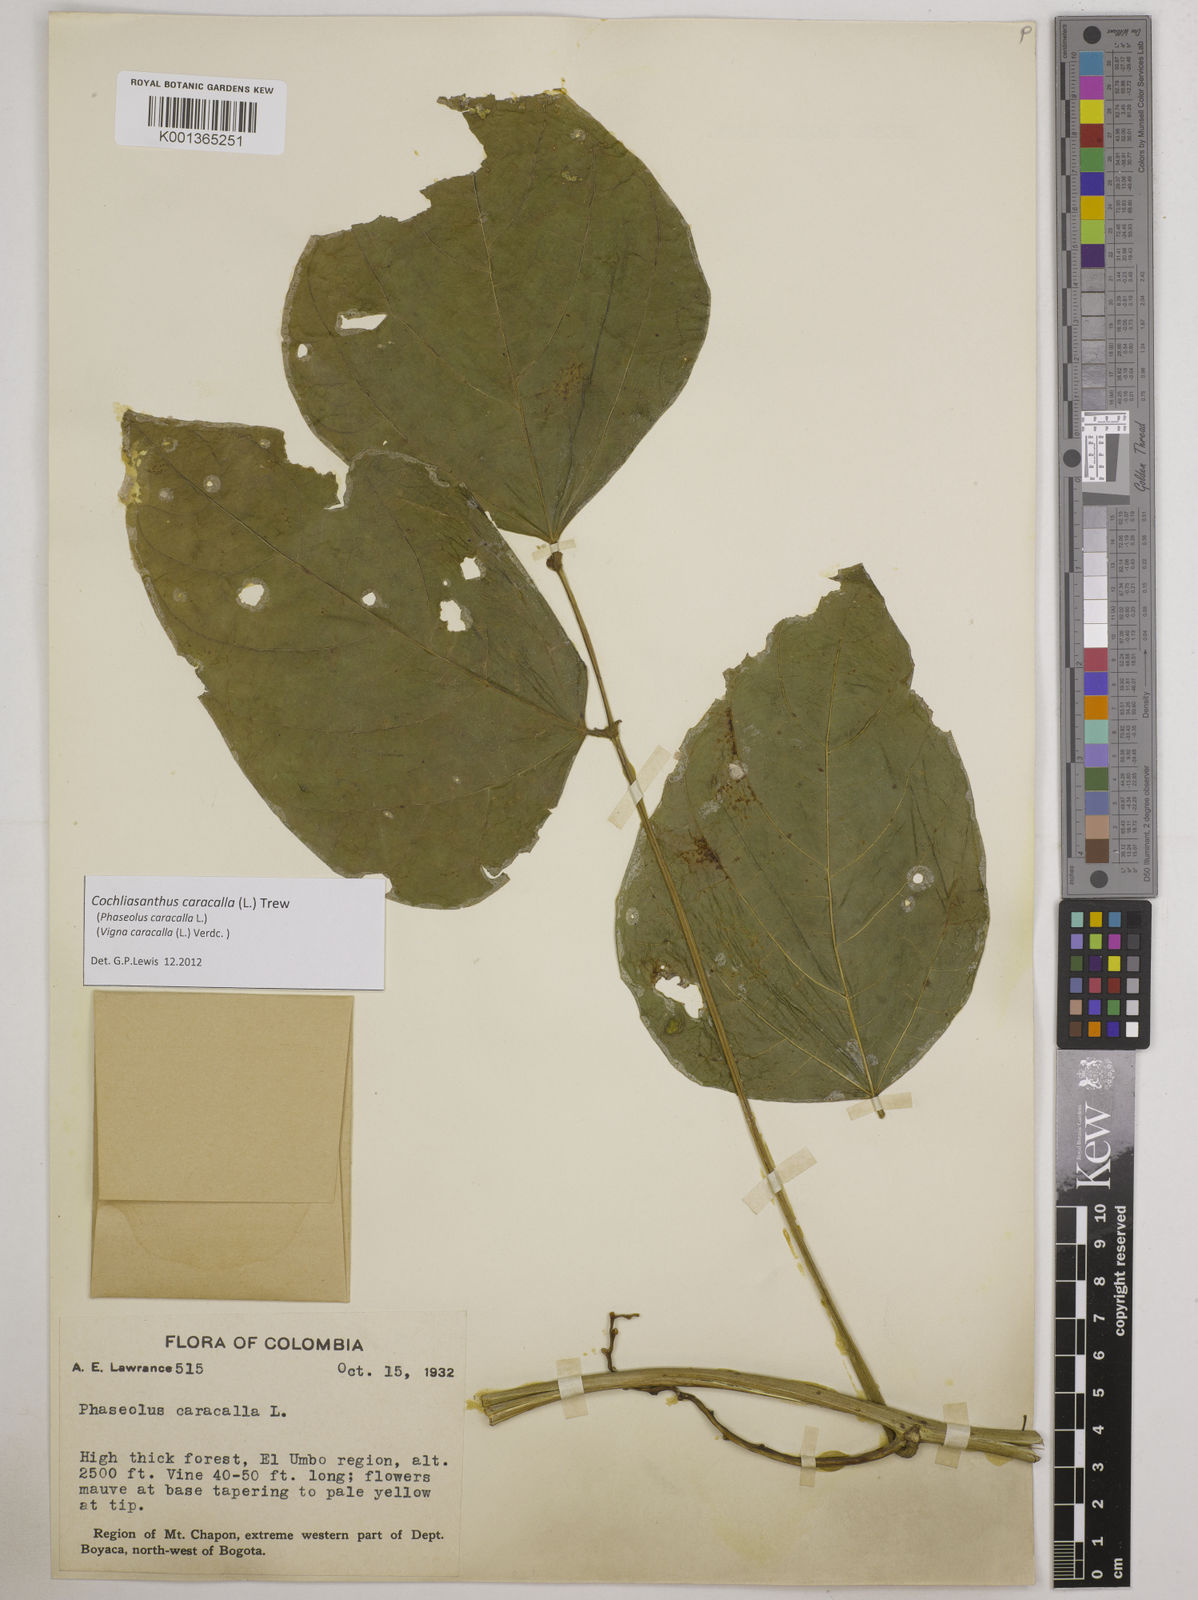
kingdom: Plantae
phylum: Tracheophyta
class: Magnoliopsida
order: Fabales
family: Fabaceae
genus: Cochliasanthus
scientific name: Cochliasanthus caracalla
